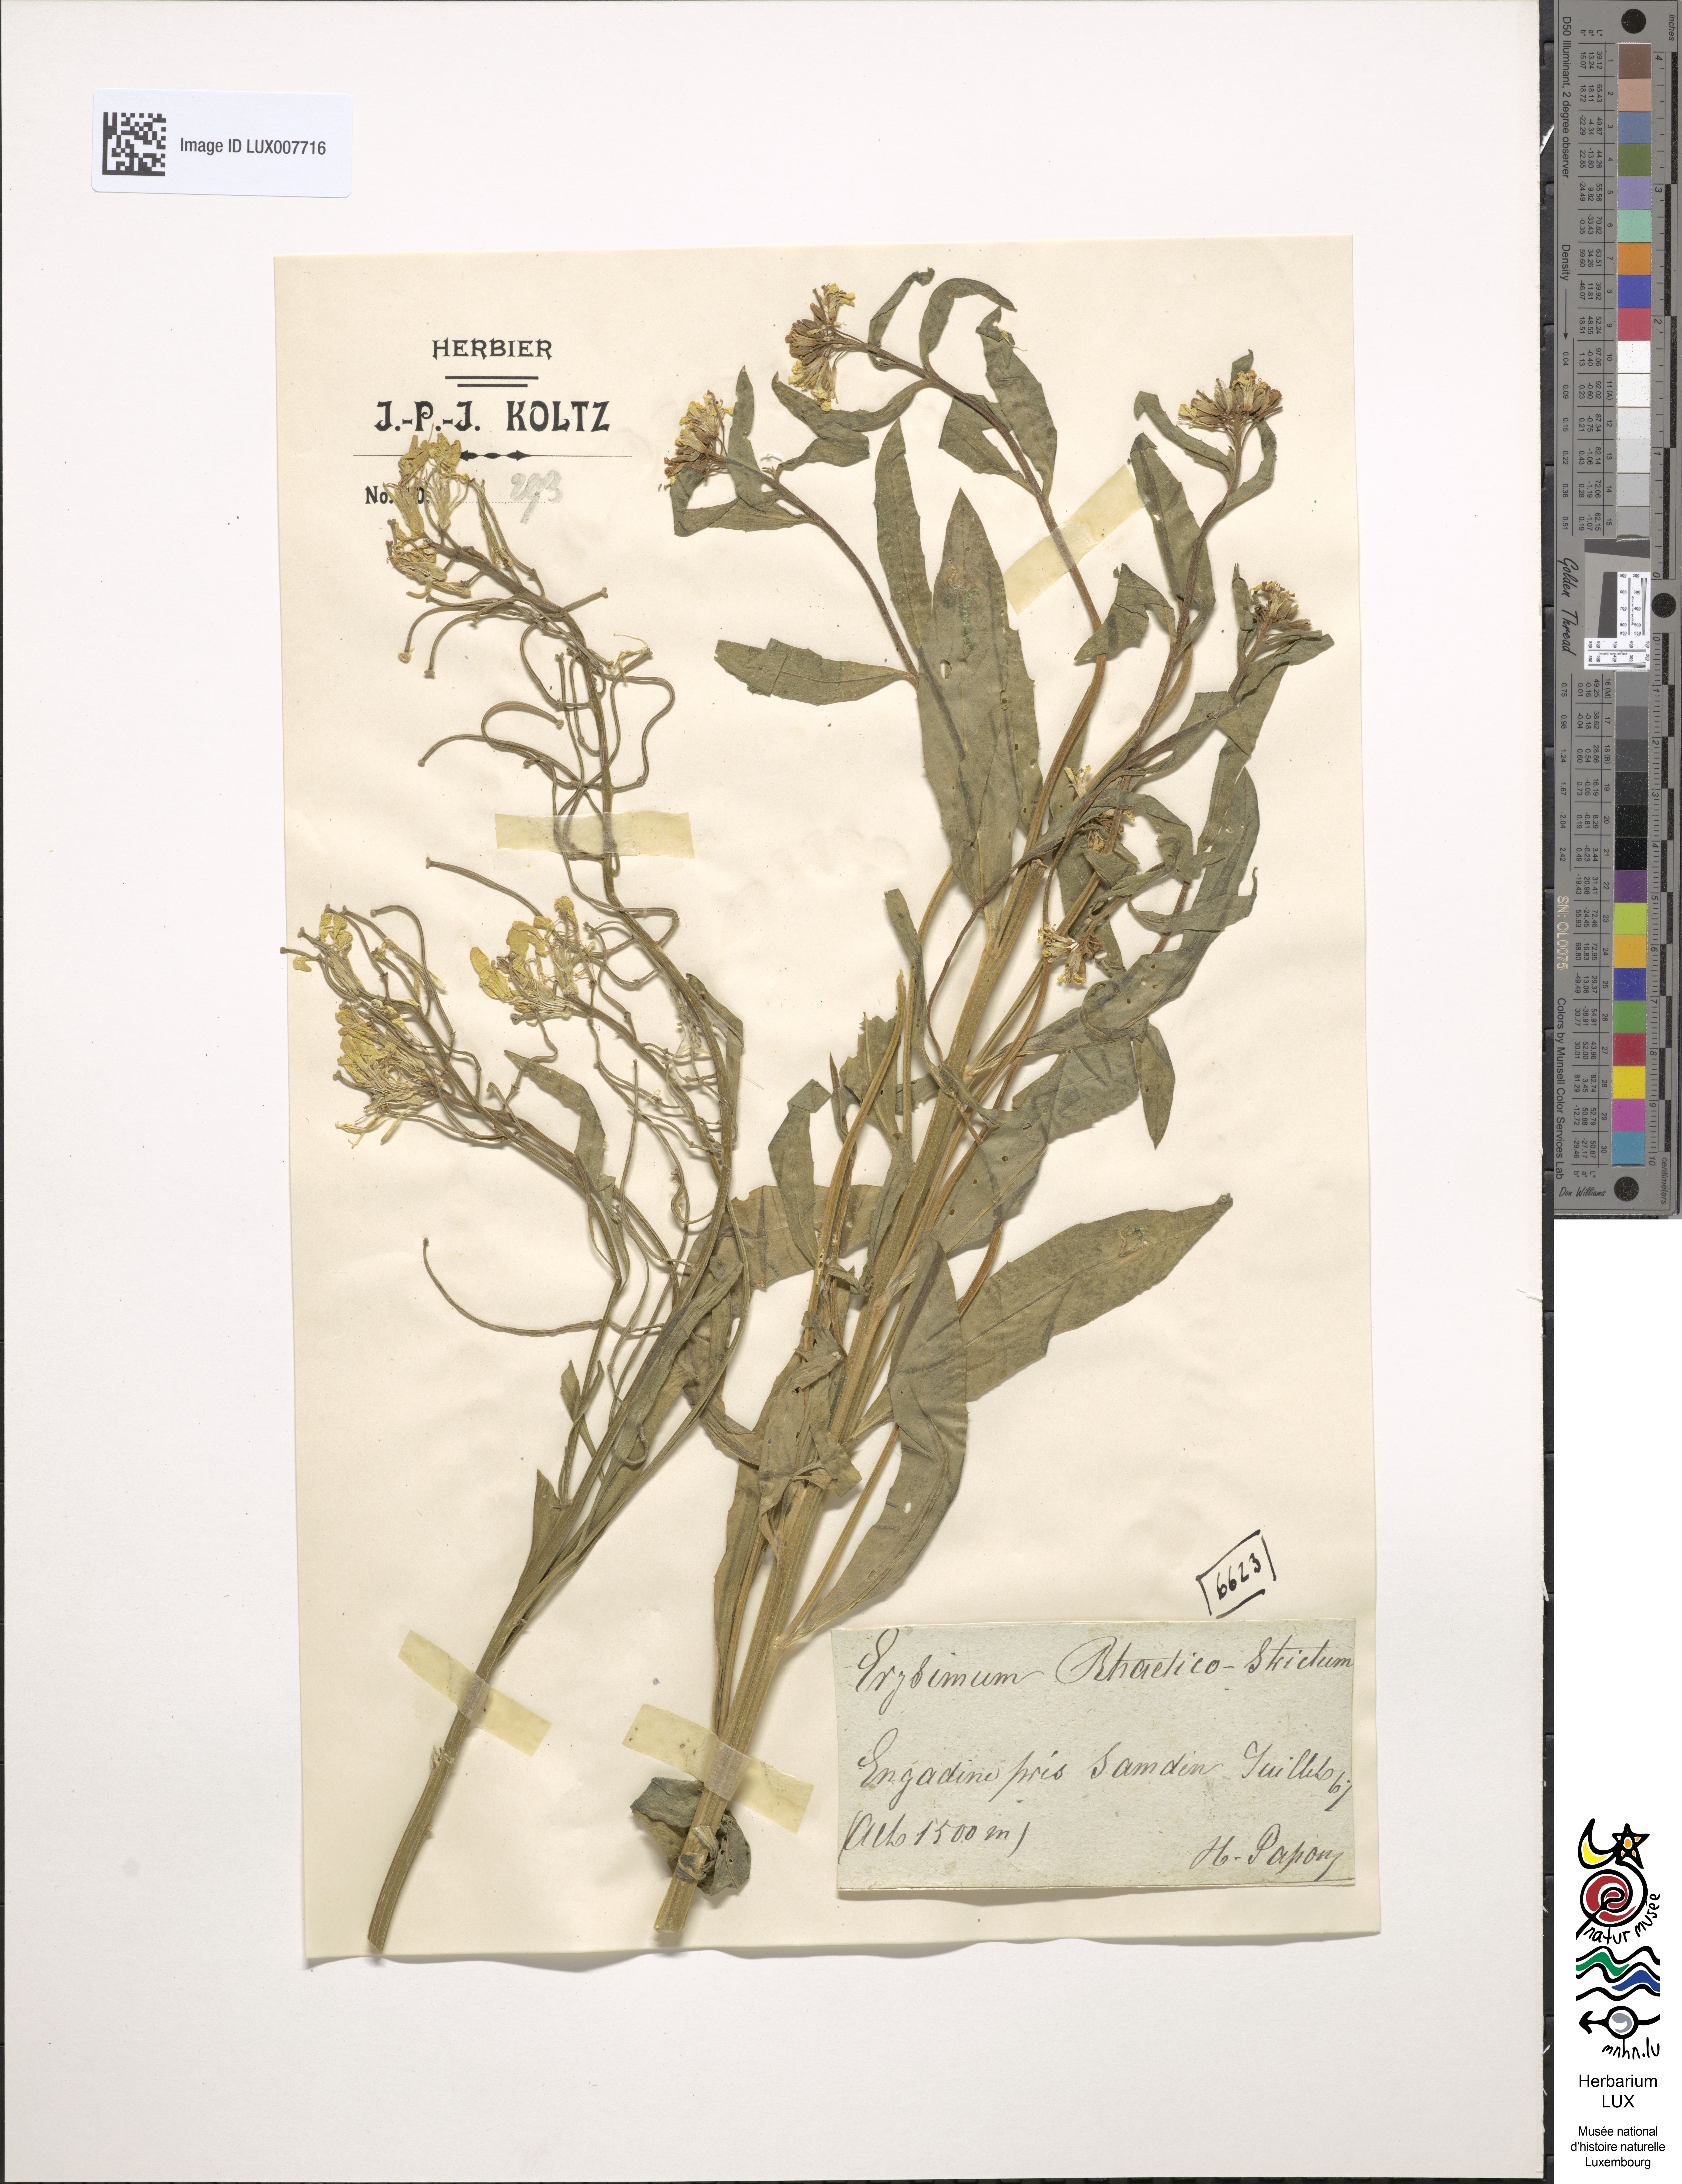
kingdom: Plantae
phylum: Tracheophyta
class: Magnoliopsida
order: Brassicales
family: Brassicaceae
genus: Erysimum
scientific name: Erysimum
